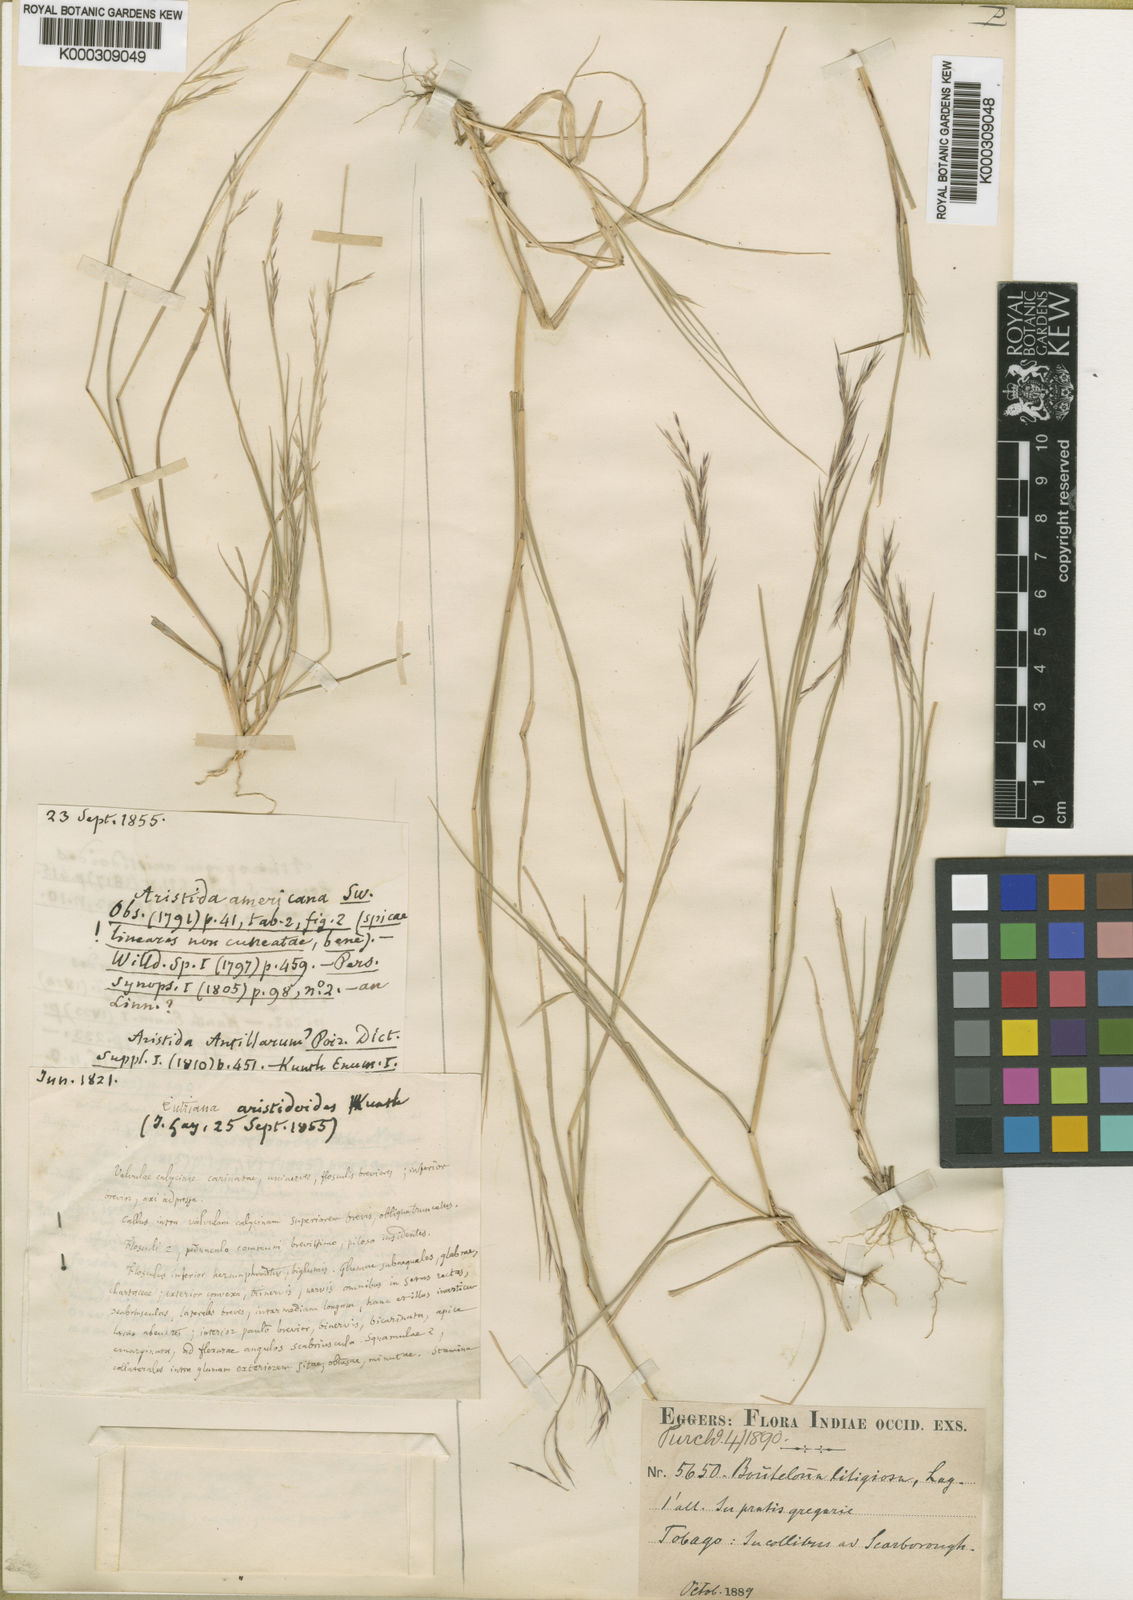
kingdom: Plantae
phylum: Tracheophyta
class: Liliopsida
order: Poales
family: Poaceae
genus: Bouteloua
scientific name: Bouteloua americana
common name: Mule grass
